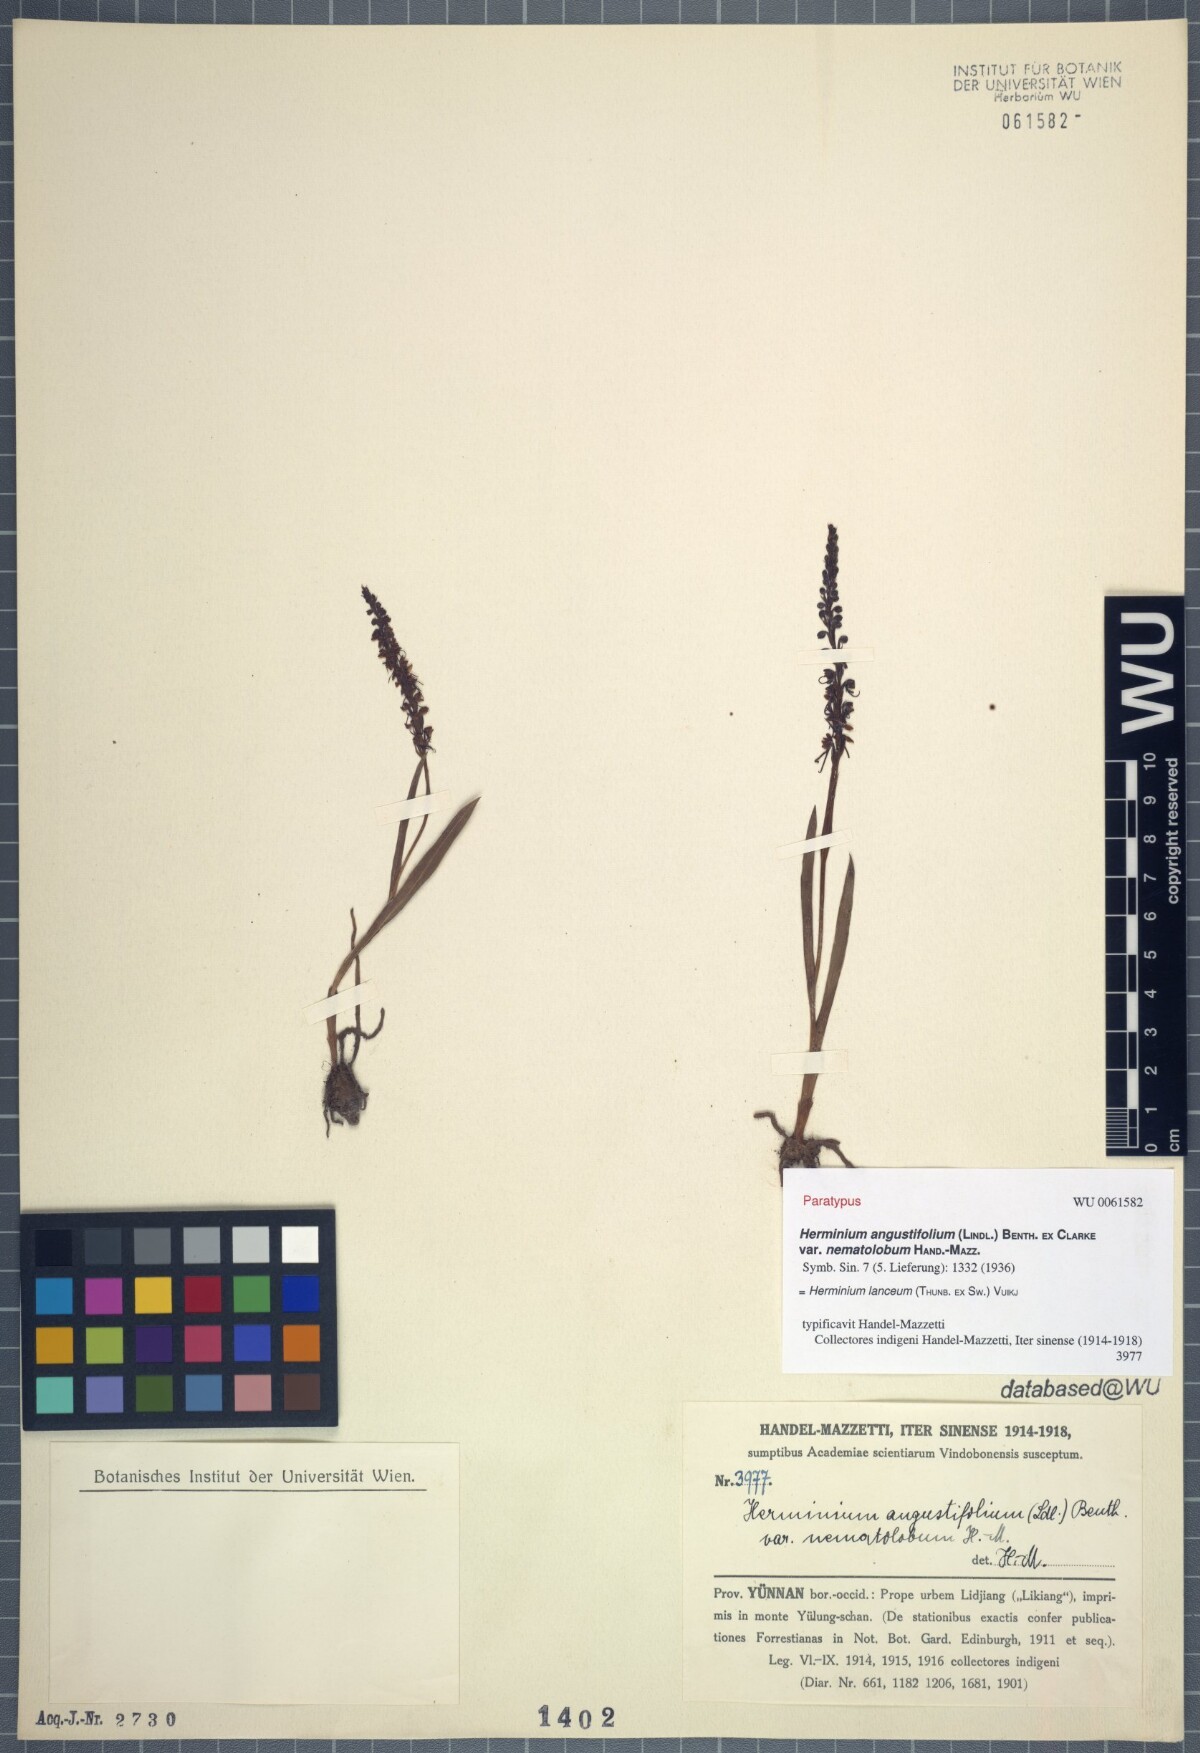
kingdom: Plantae
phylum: Tracheophyta
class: Liliopsida
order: Asparagales
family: Orchidaceae
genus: Herminium
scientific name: Herminium lanceum
